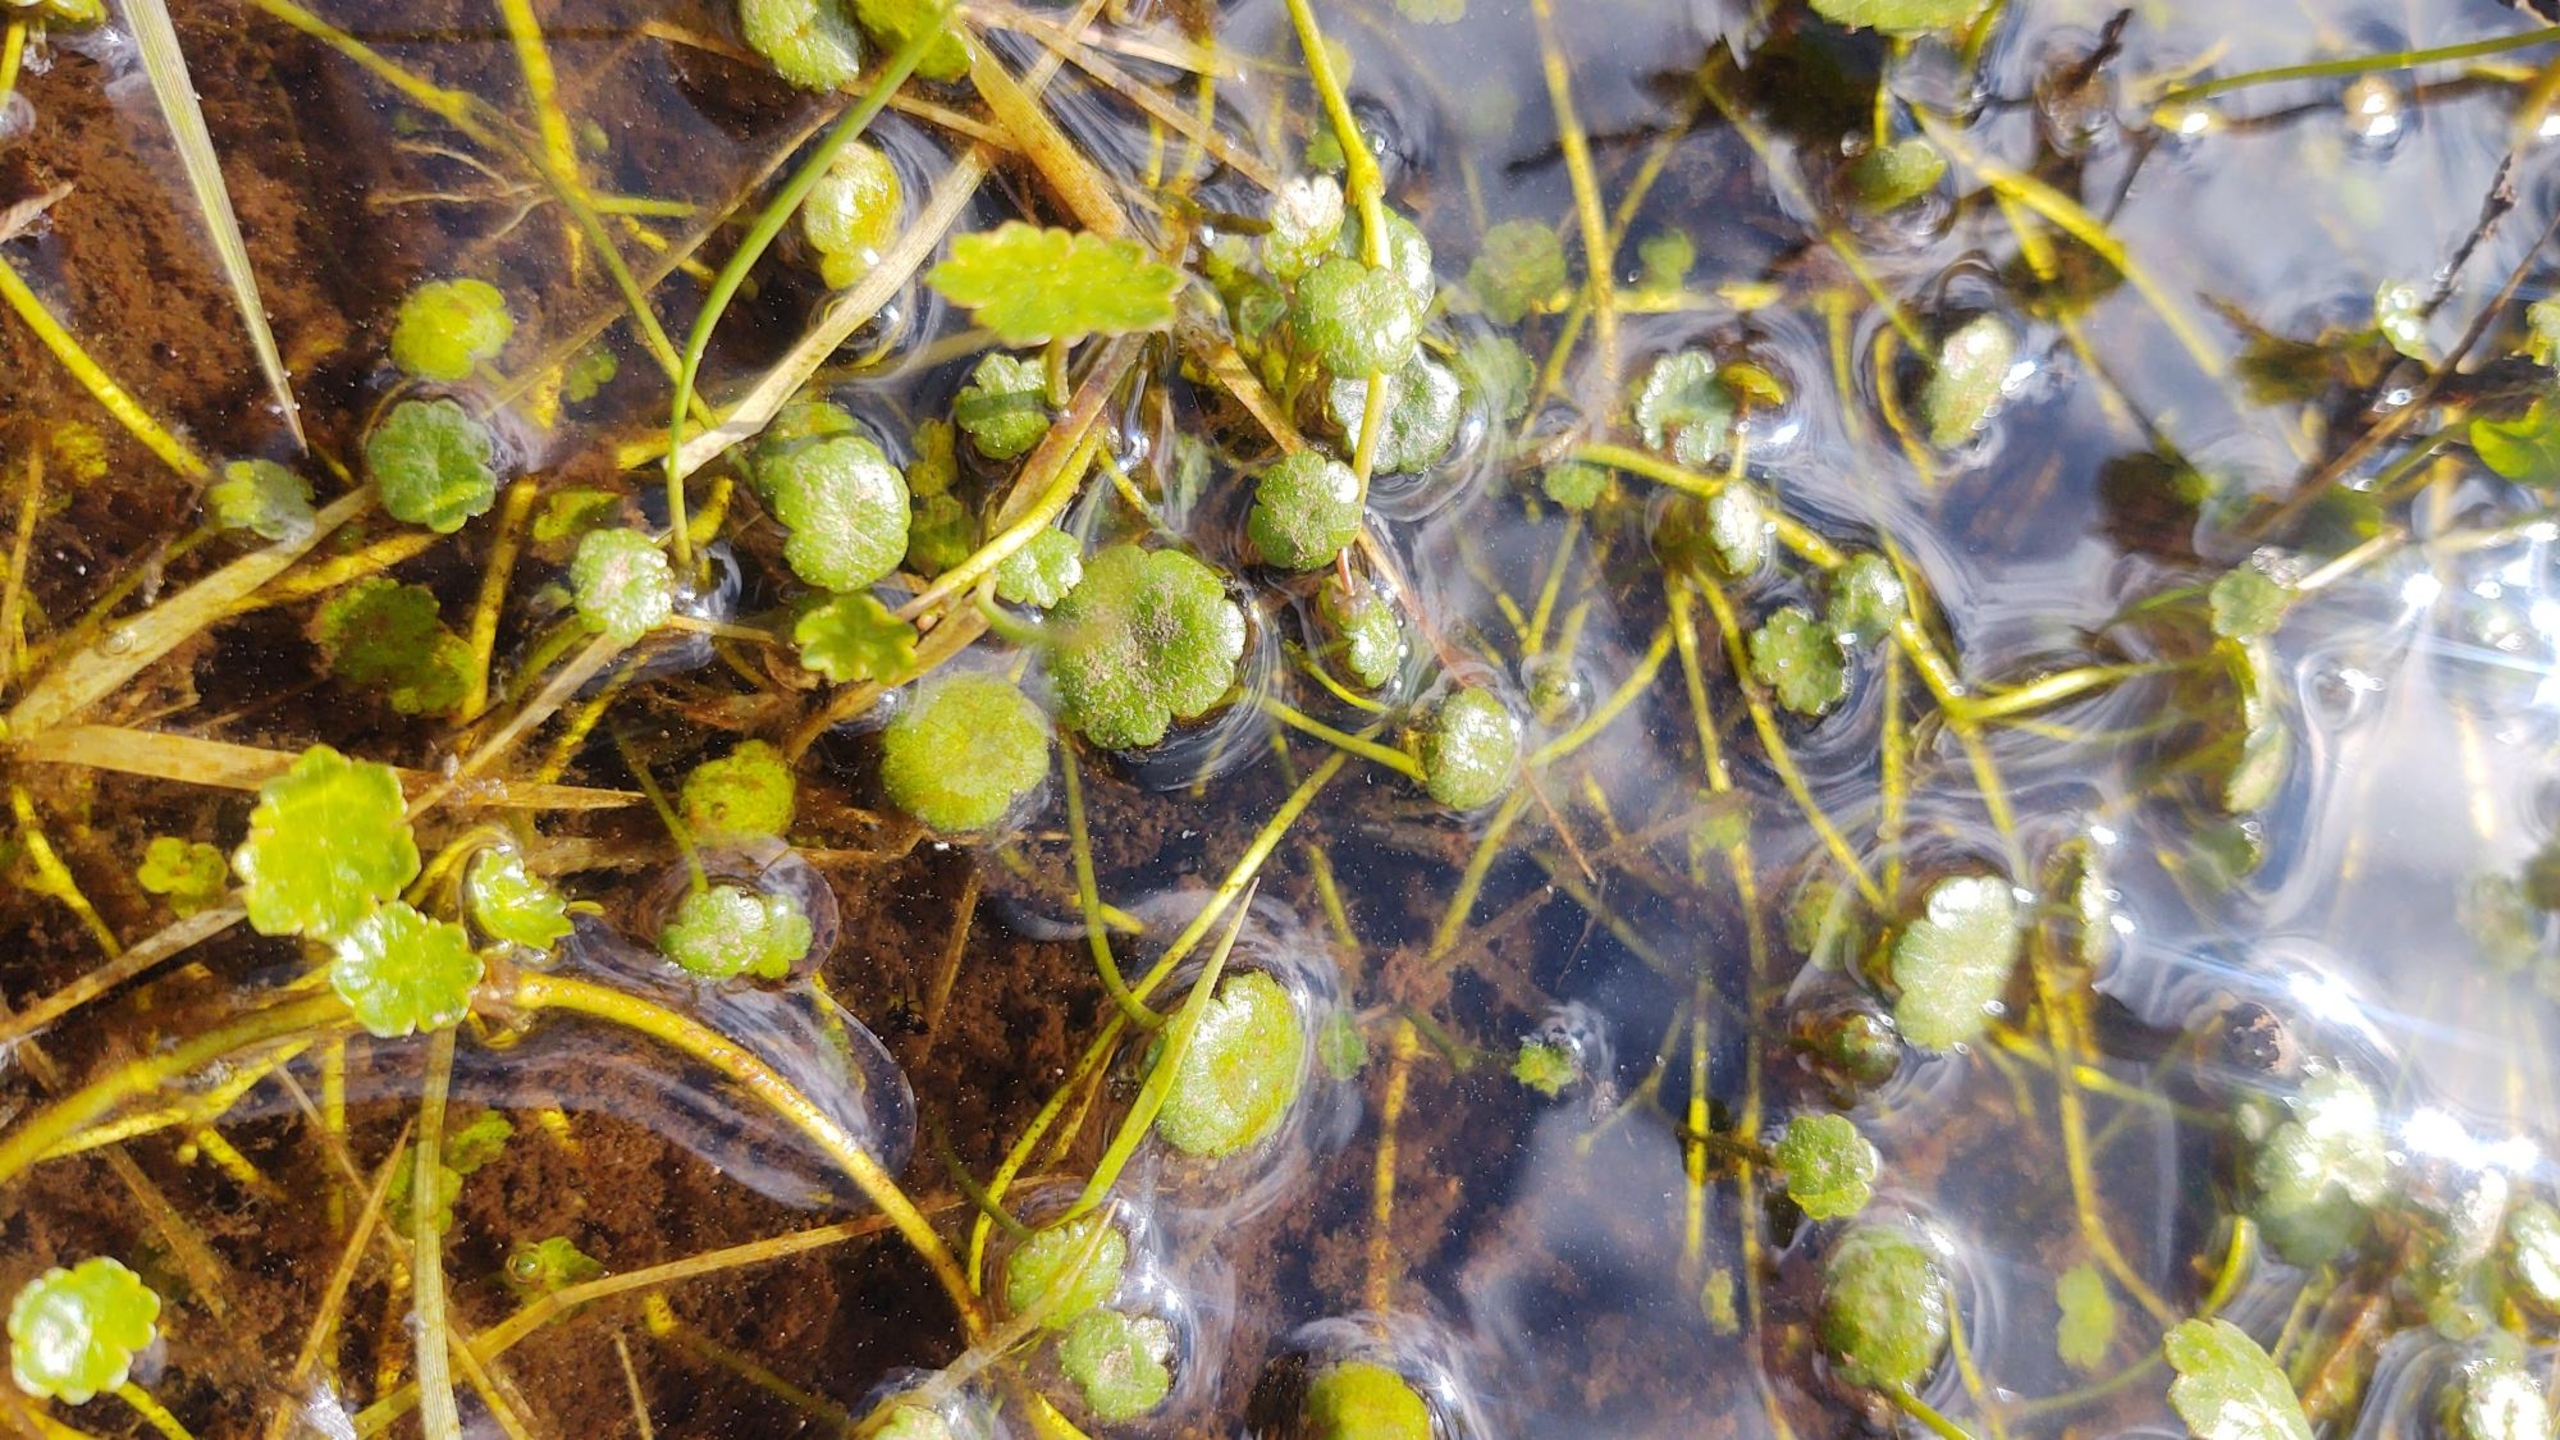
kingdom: Plantae
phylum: Tracheophyta
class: Magnoliopsida
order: Apiales
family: Araliaceae
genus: Hydrocotyle
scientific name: Hydrocotyle vulgaris
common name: Vandnavle
